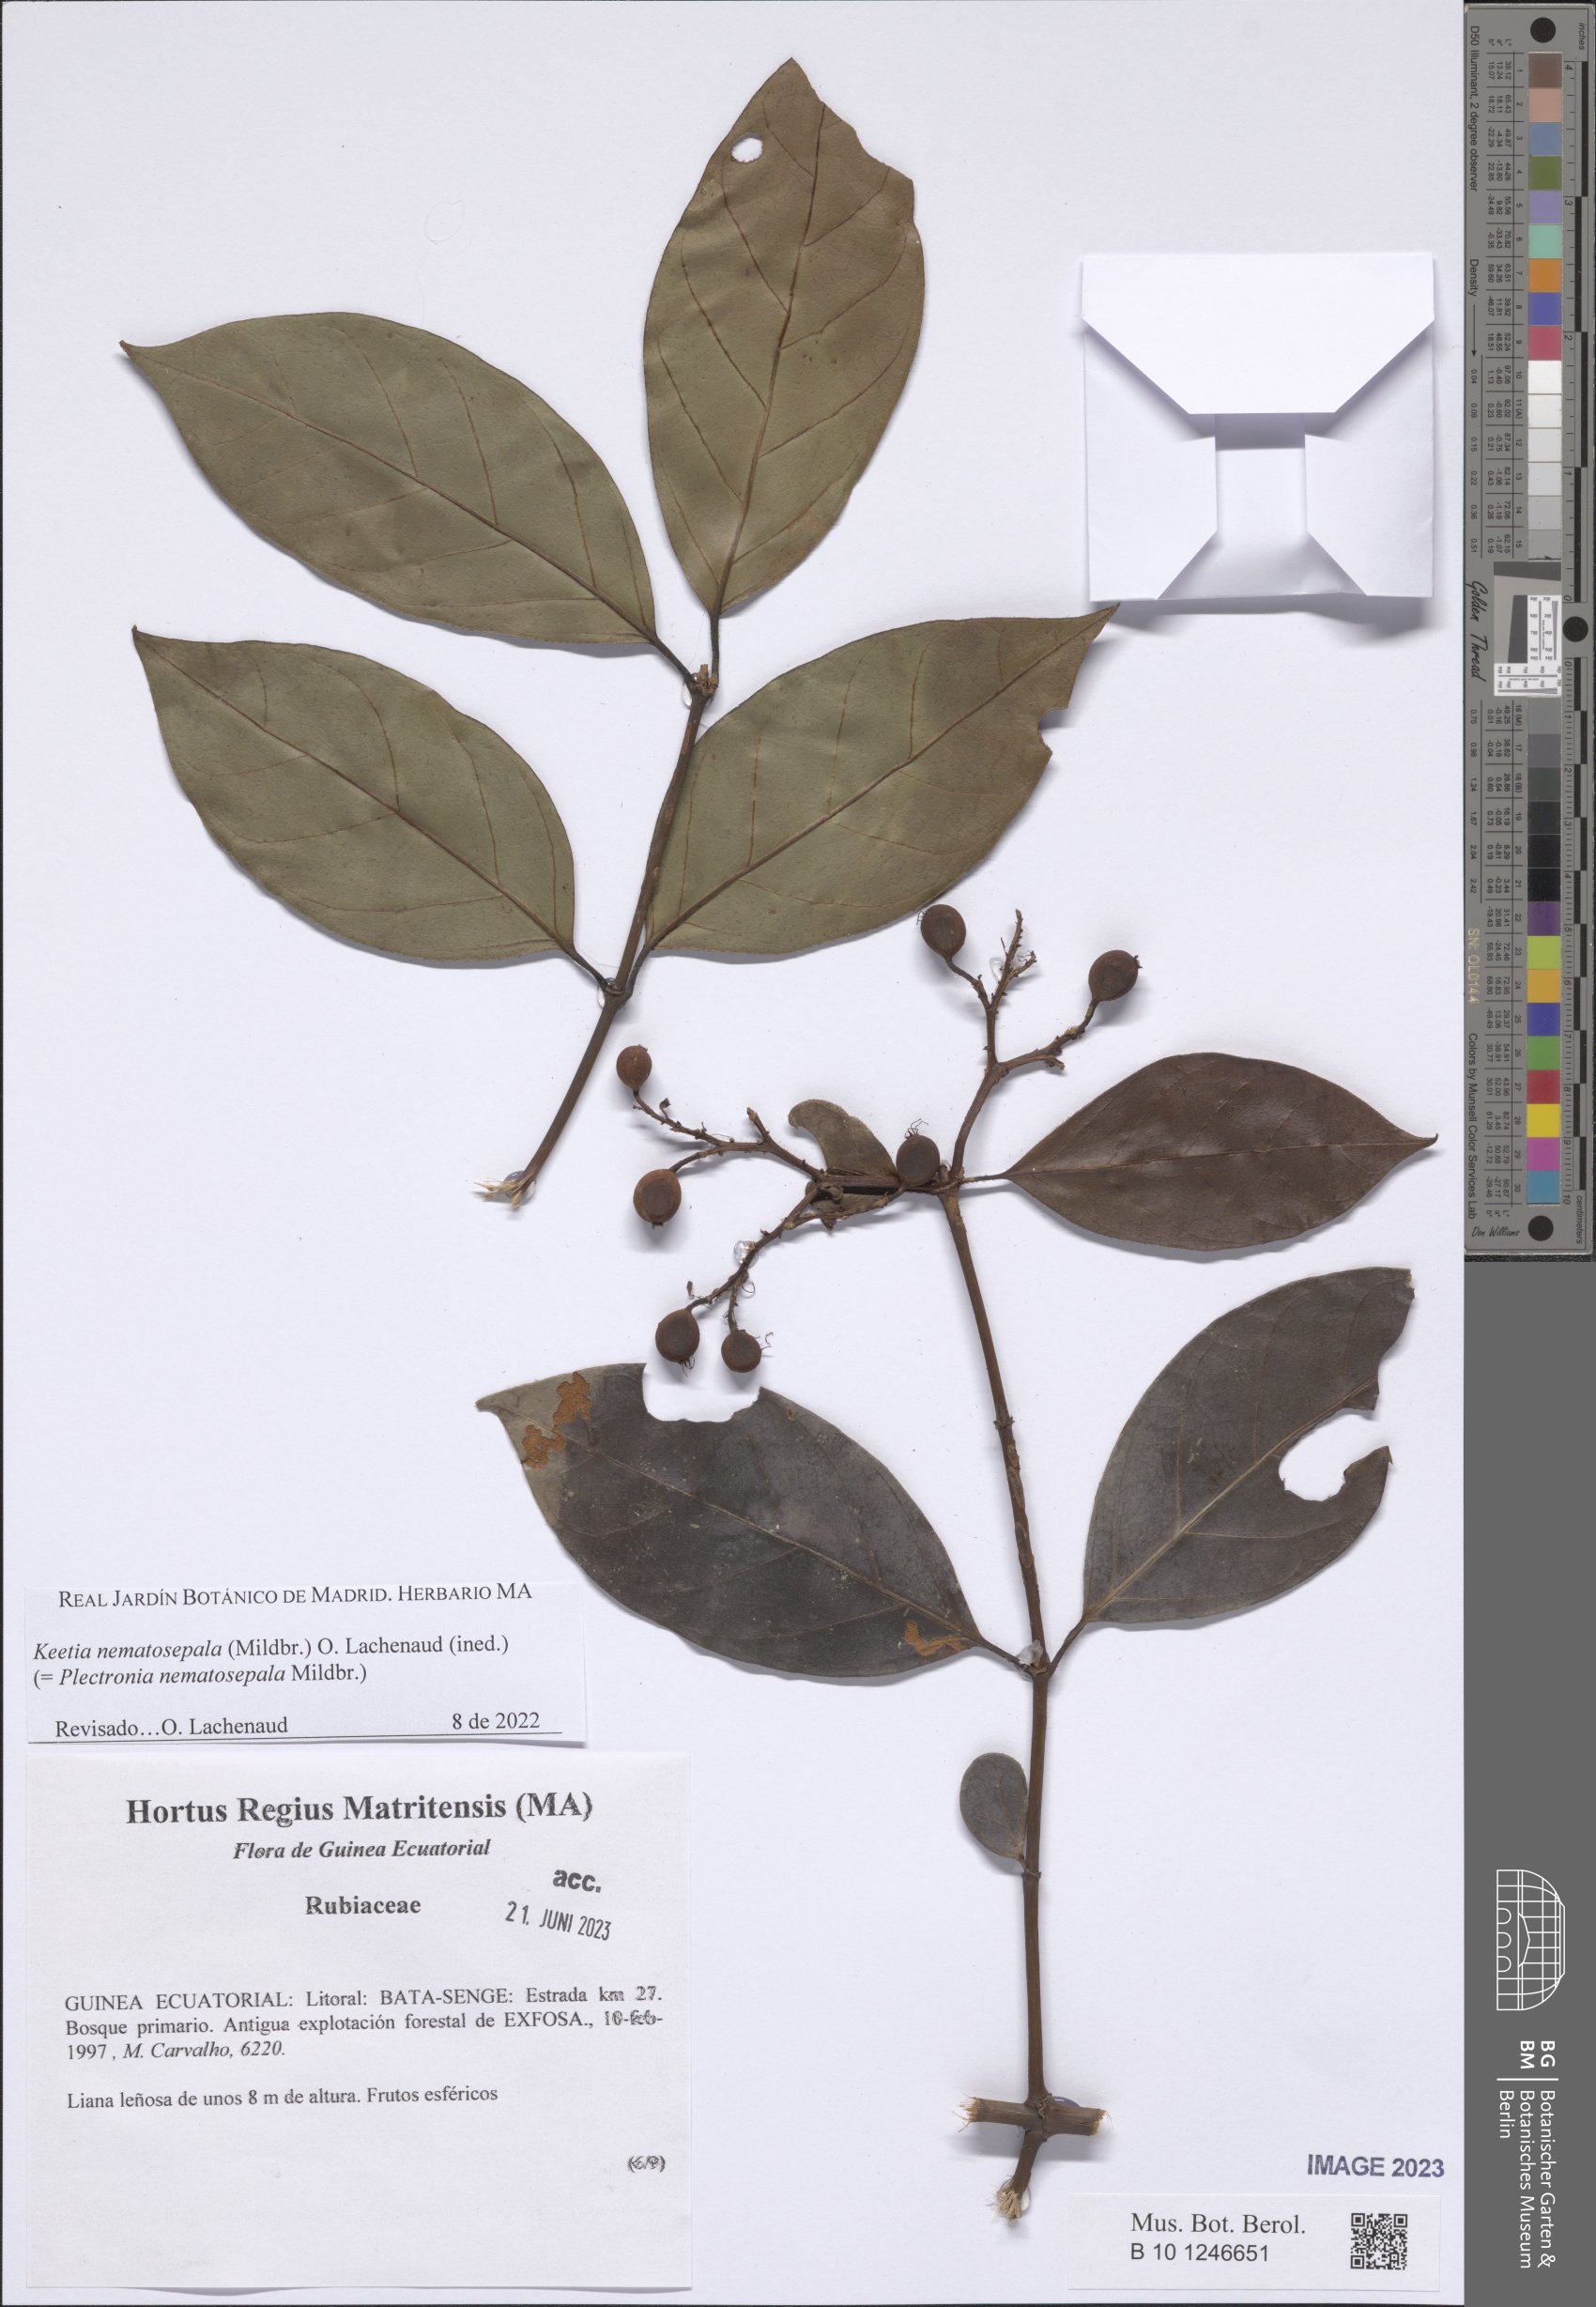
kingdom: Plantae
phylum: Tracheophyta
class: Magnoliopsida
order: Gentianales
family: Rubiaceae
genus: Keetia
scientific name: Keetia
